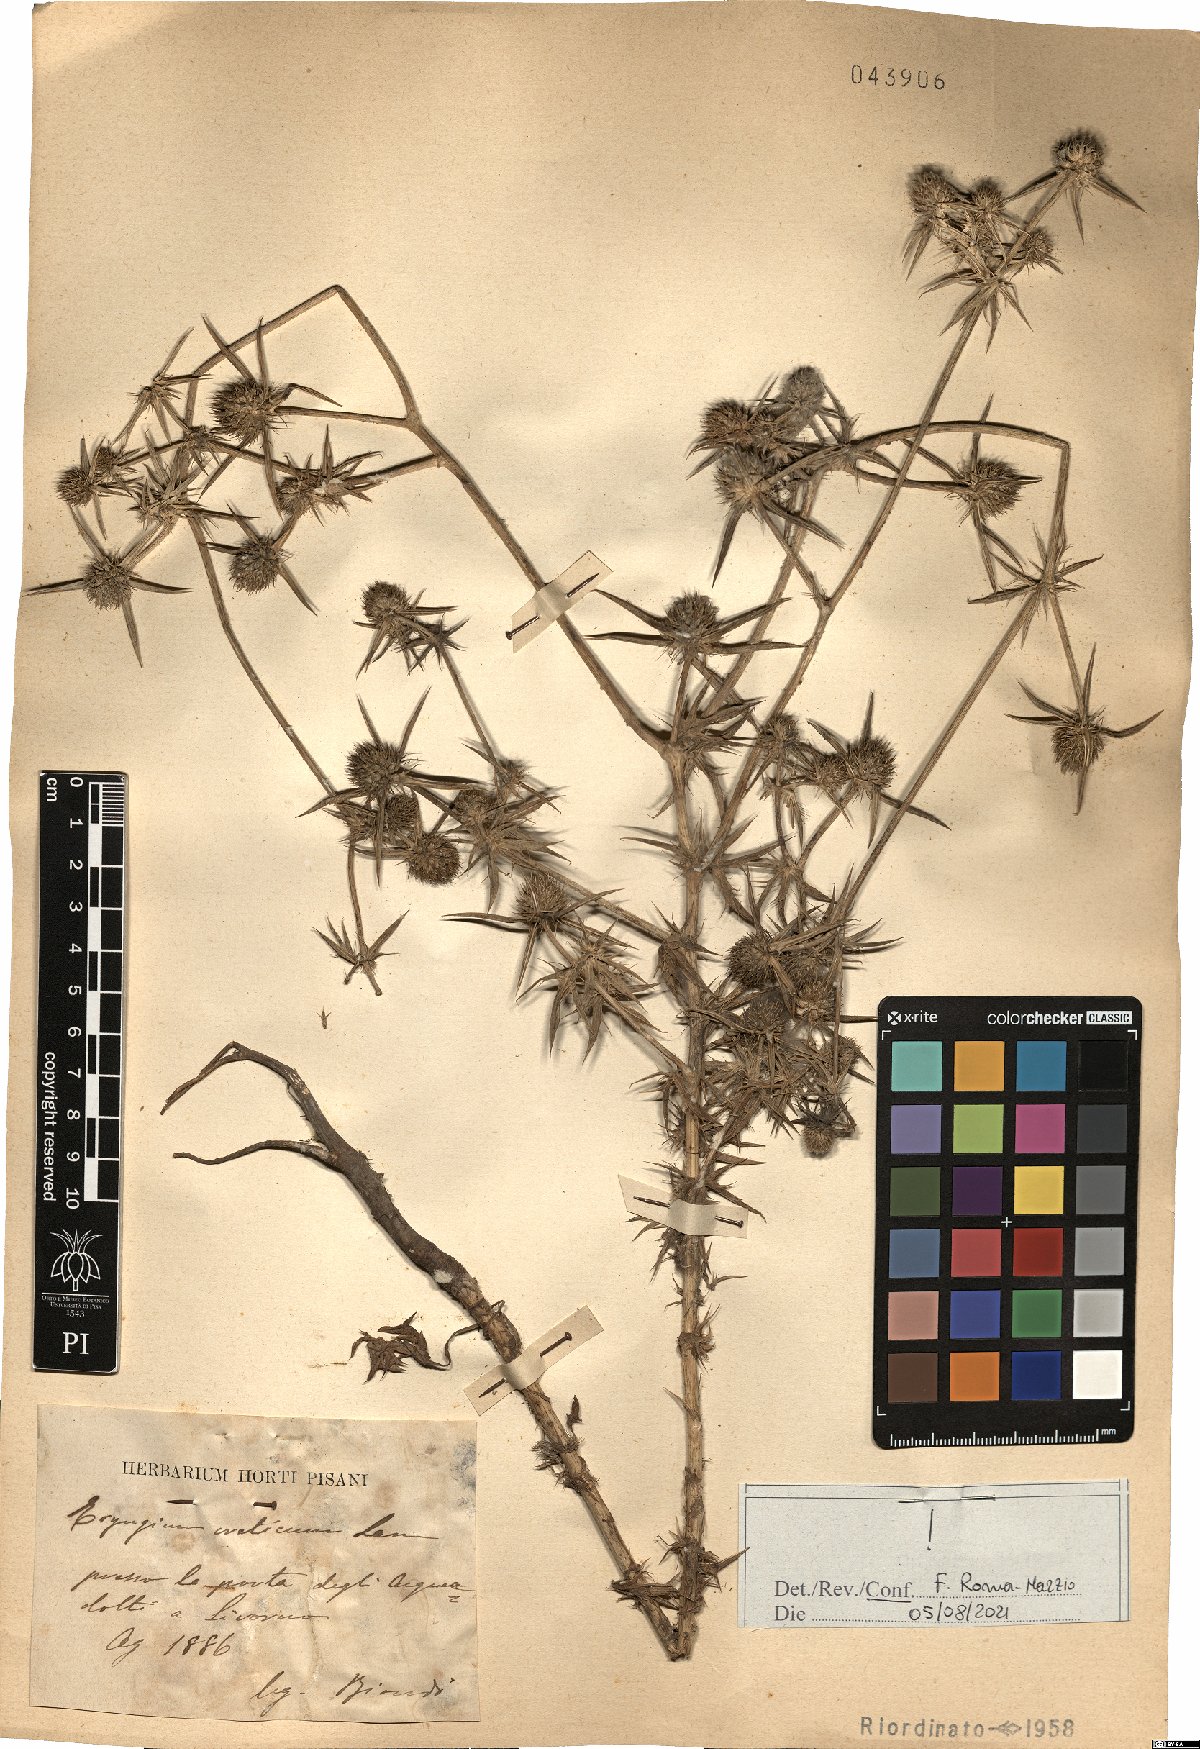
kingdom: Plantae
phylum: Tracheophyta
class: Magnoliopsida
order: Apiales
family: Apiaceae
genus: Eryngium
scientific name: Eryngium creticum
